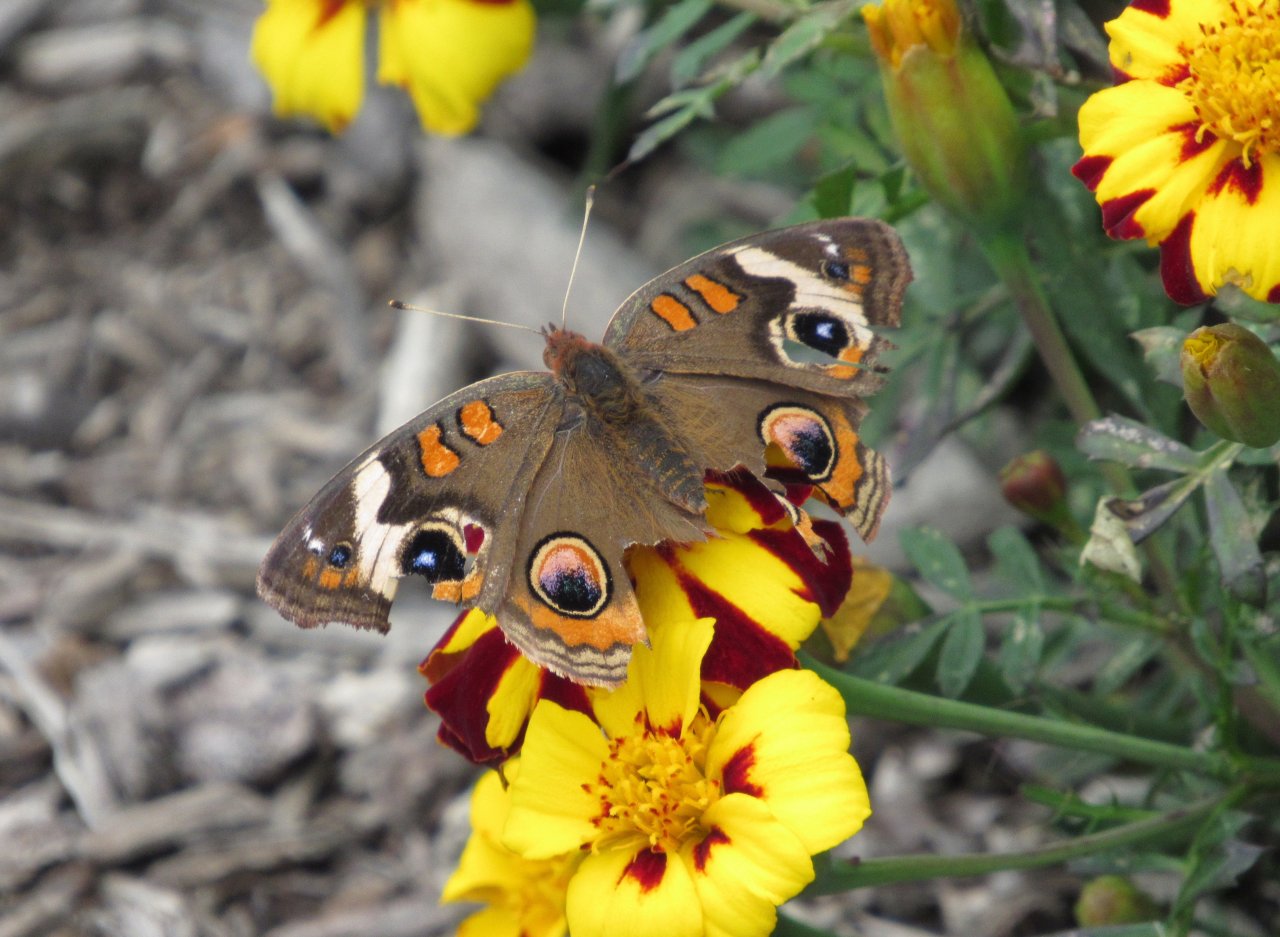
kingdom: Animalia
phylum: Arthropoda
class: Insecta
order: Lepidoptera
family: Nymphalidae
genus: Junonia
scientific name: Junonia coenia
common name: Common Buckeye
